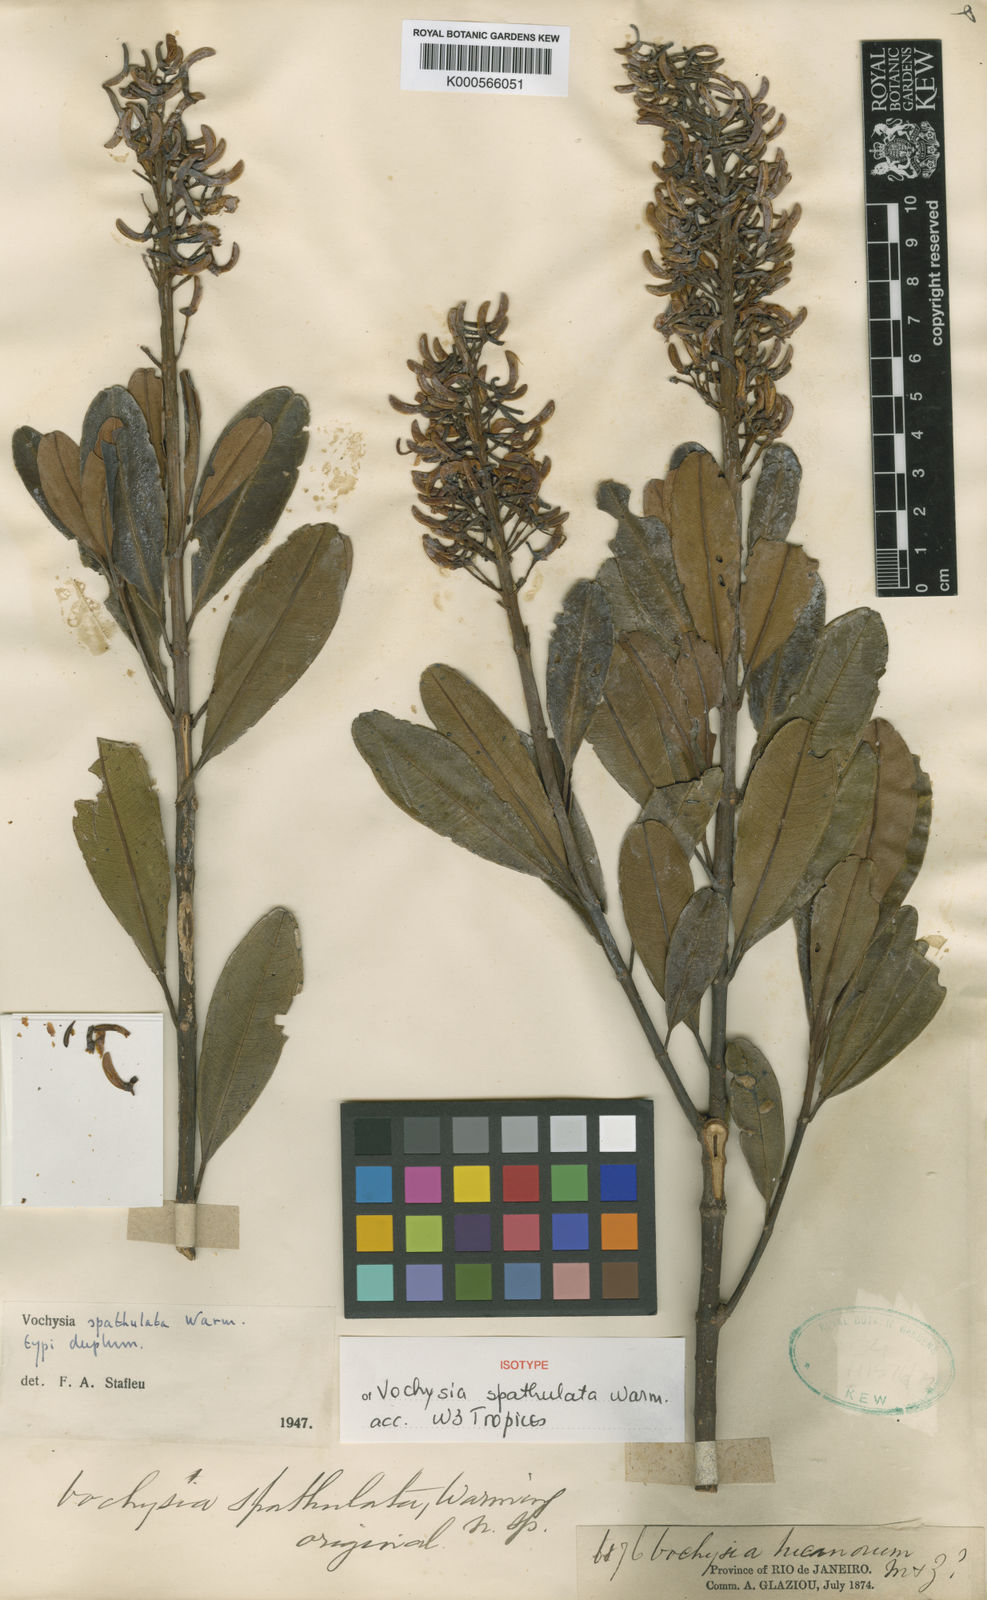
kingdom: Plantae
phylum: Tracheophyta
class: Magnoliopsida
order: Myrtales
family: Vochysiaceae
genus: Vochysia
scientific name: Vochysia spathulata
